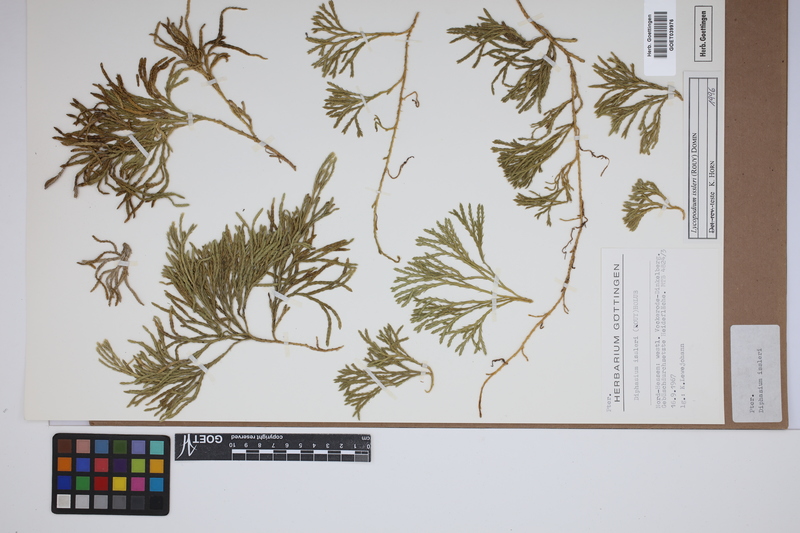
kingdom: Plantae
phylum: Tracheophyta
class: Lycopodiopsida
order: Lycopodiales
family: Lycopodiaceae
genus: Diphasiastrum
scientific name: Diphasiastrum issleri
